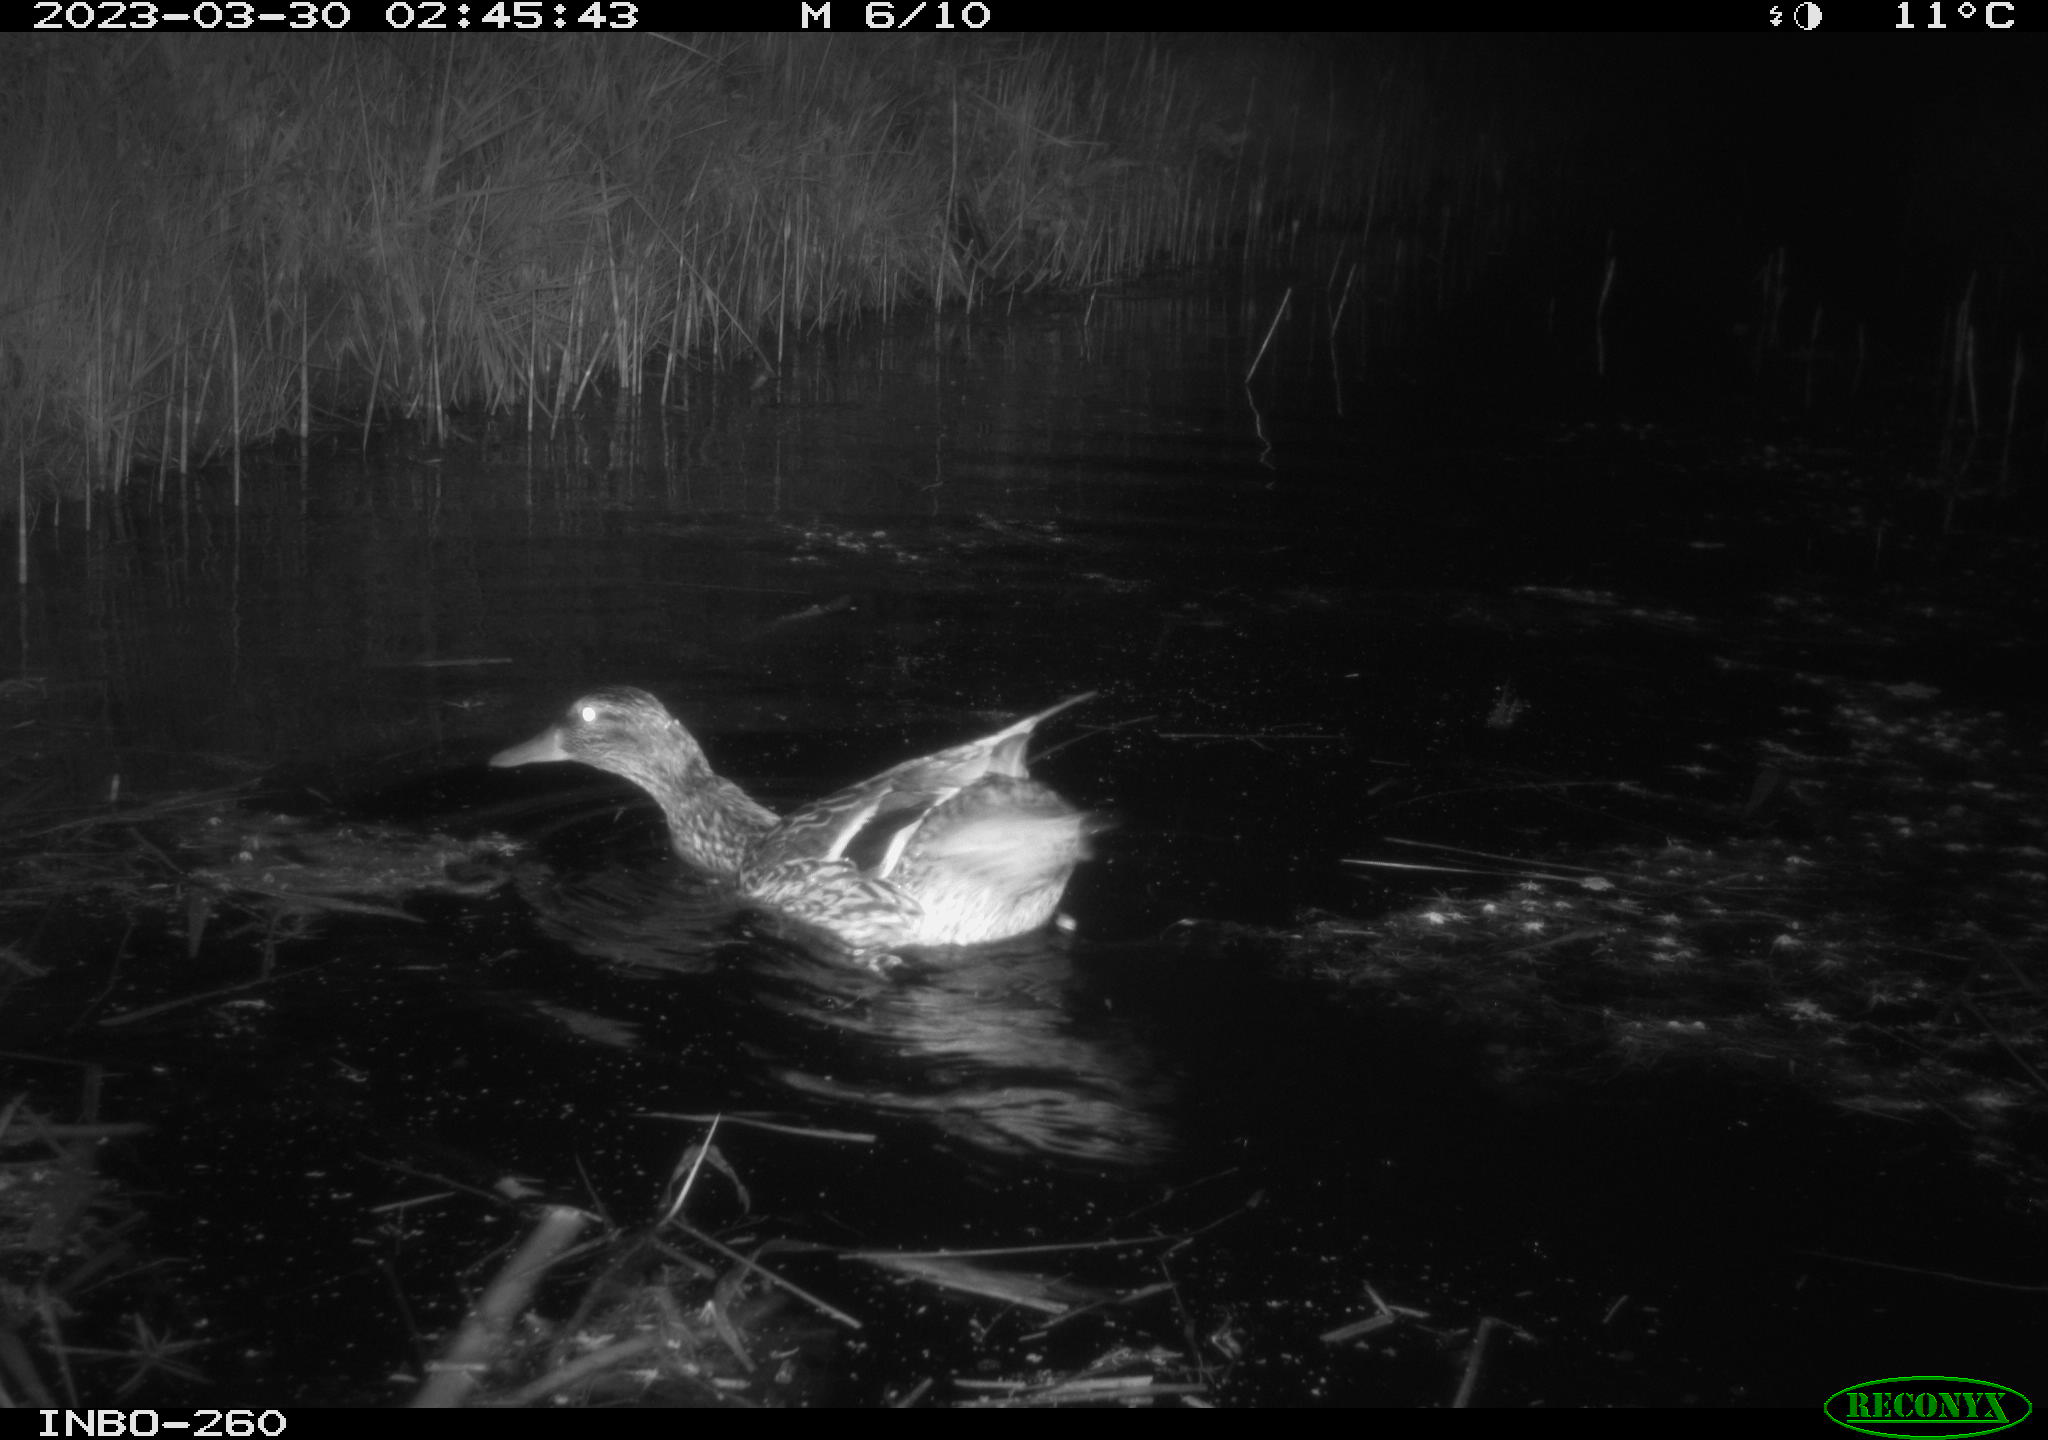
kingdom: Animalia
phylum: Chordata
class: Aves
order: Anseriformes
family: Anatidae
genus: Anas
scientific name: Anas platyrhynchos
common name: Mallard
